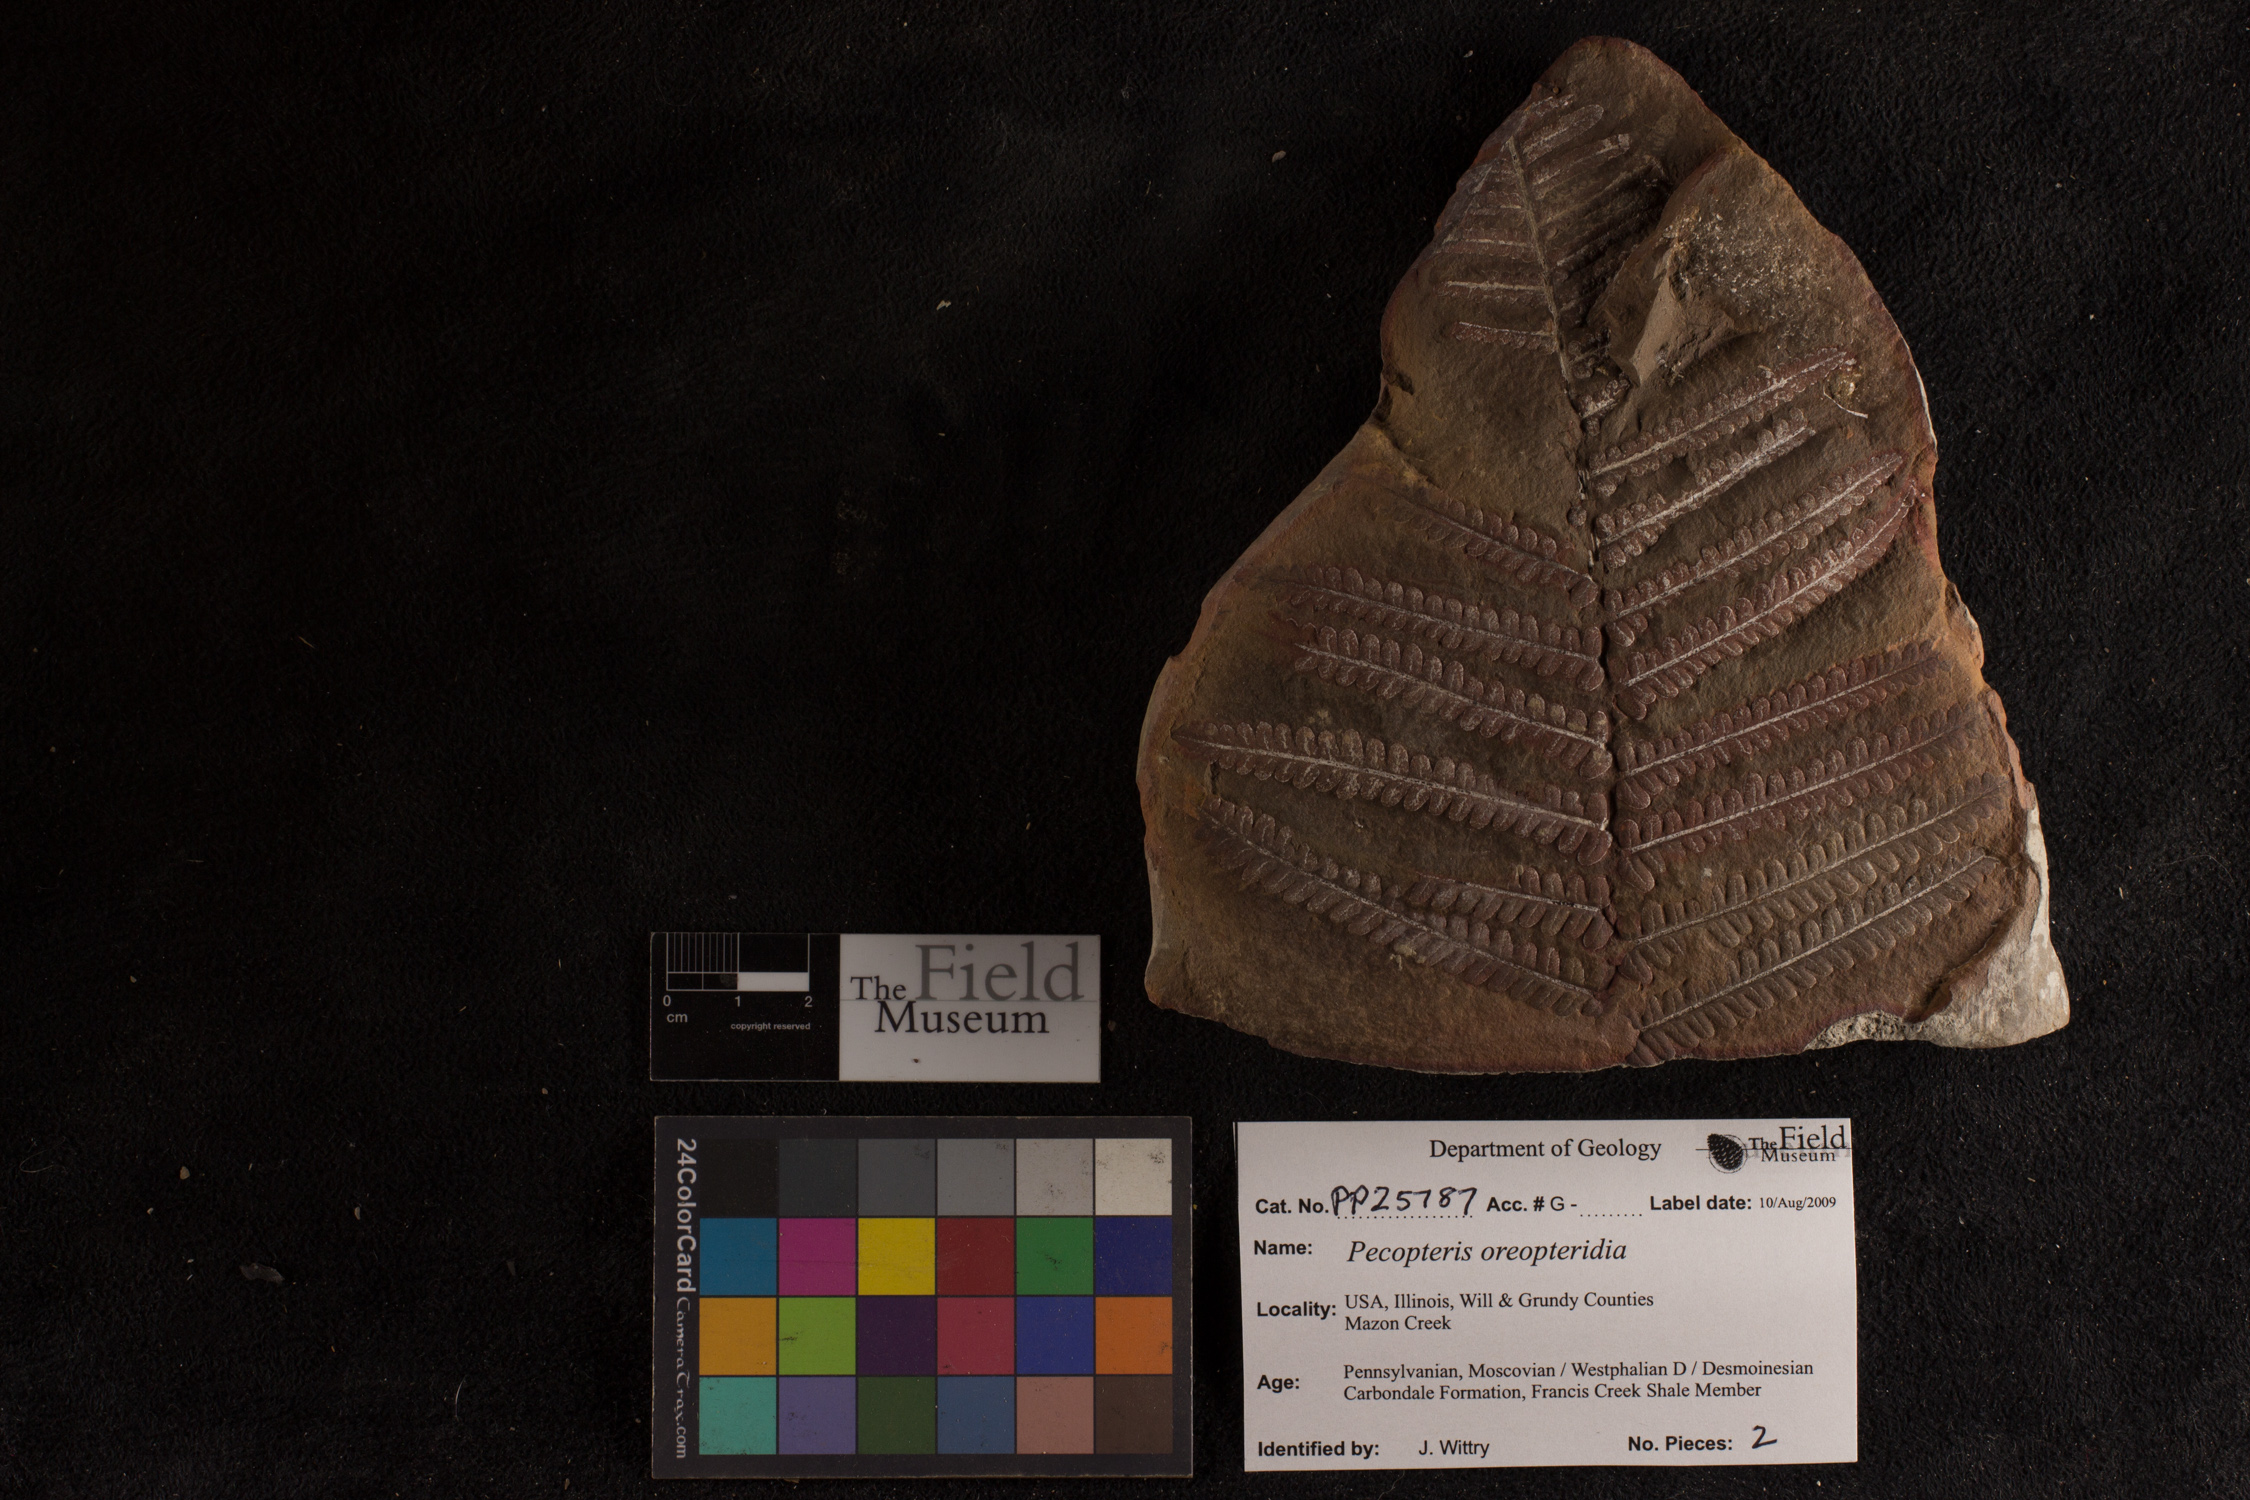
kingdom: Plantae
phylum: Tracheophyta
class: Polypodiopsida
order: Marattiales
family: Asterothecaceae
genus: Pecopteris
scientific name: Pecopteris
